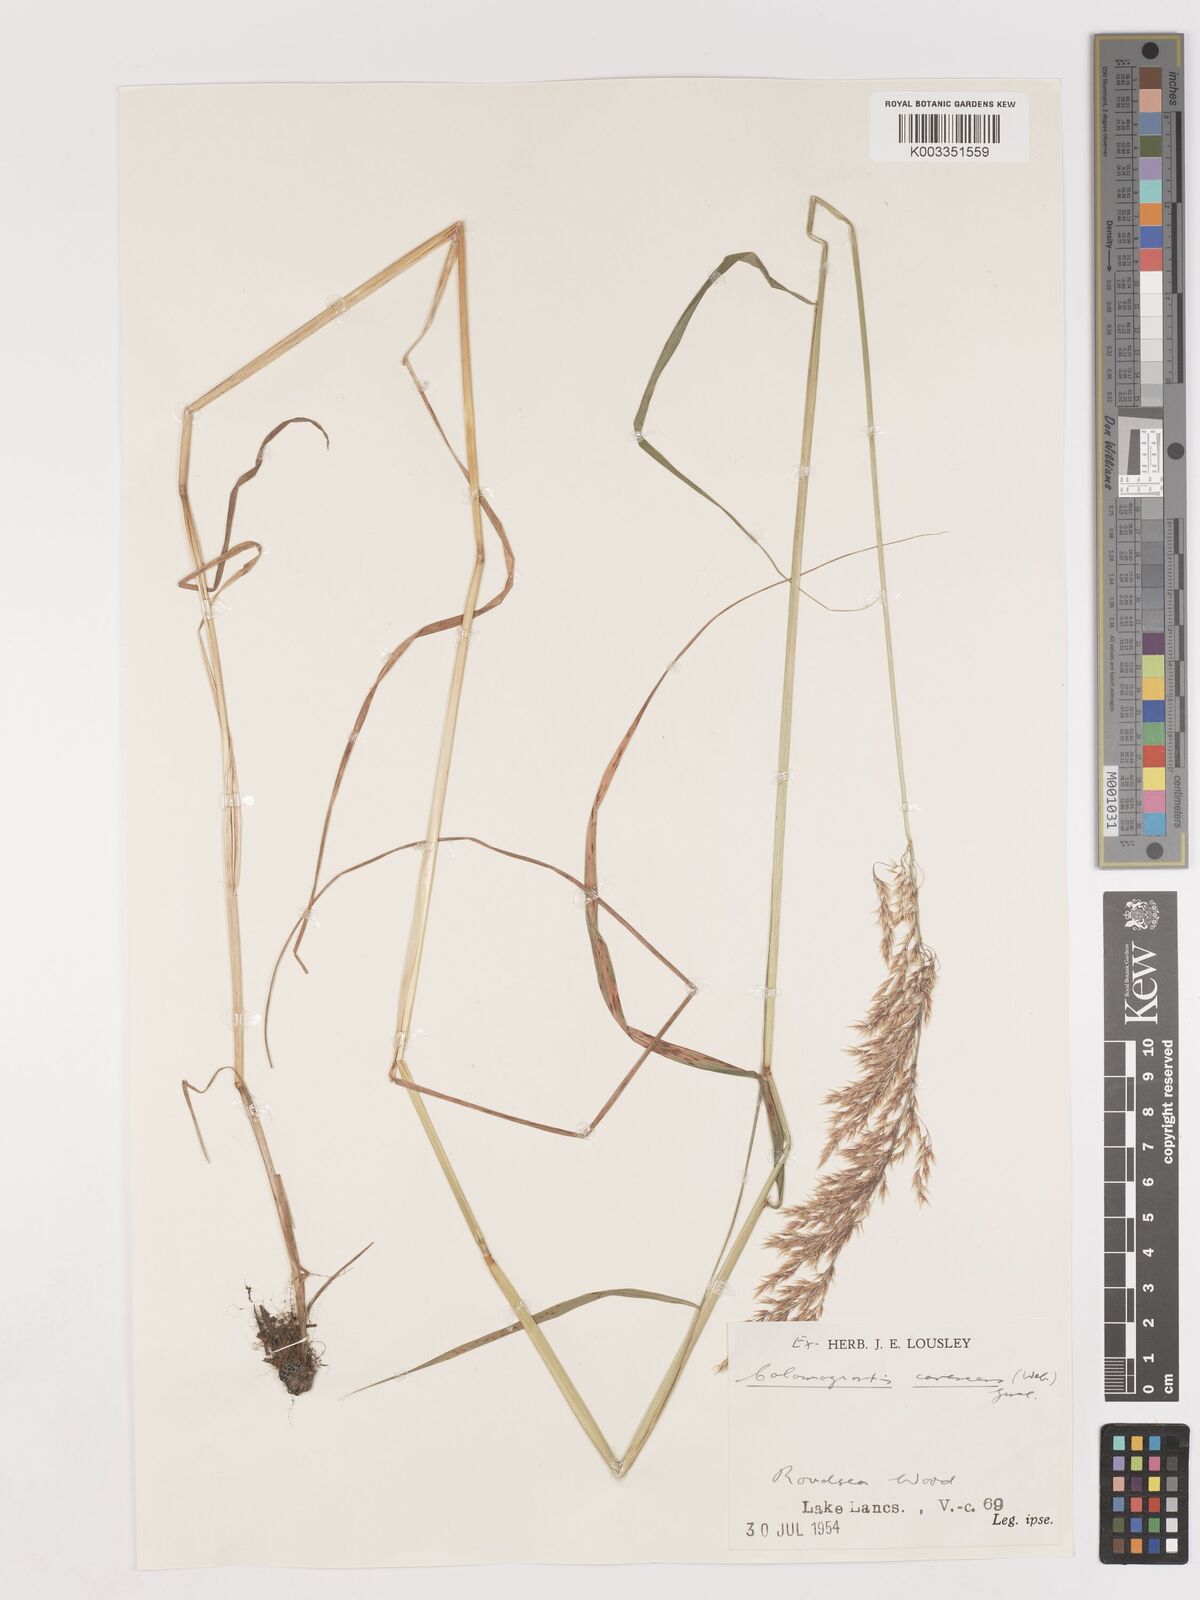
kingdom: Plantae
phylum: Tracheophyta
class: Liliopsida
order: Poales
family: Poaceae
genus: Calamagrostis
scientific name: Calamagrostis canescens
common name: Purple small-reed
